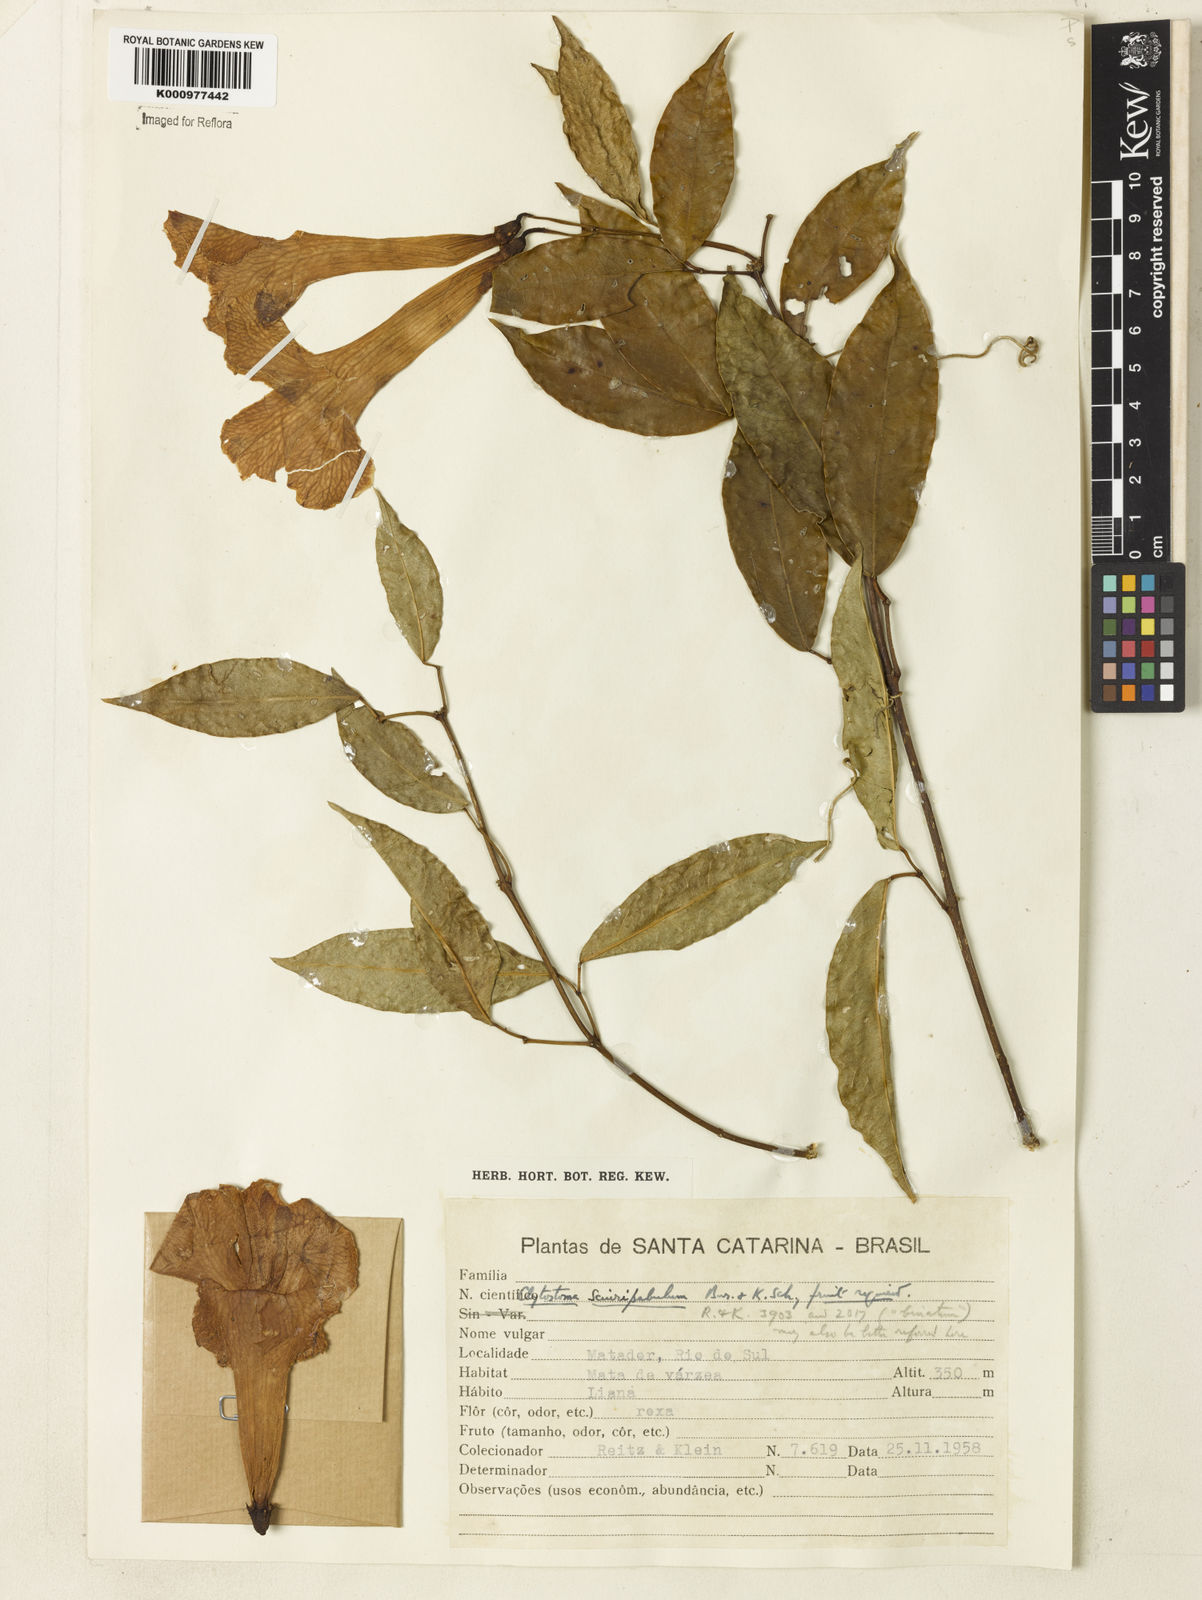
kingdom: Plantae
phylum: Tracheophyta
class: Magnoliopsida
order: Lamiales
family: Bignoniaceae
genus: Bignonia
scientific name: Bignonia
